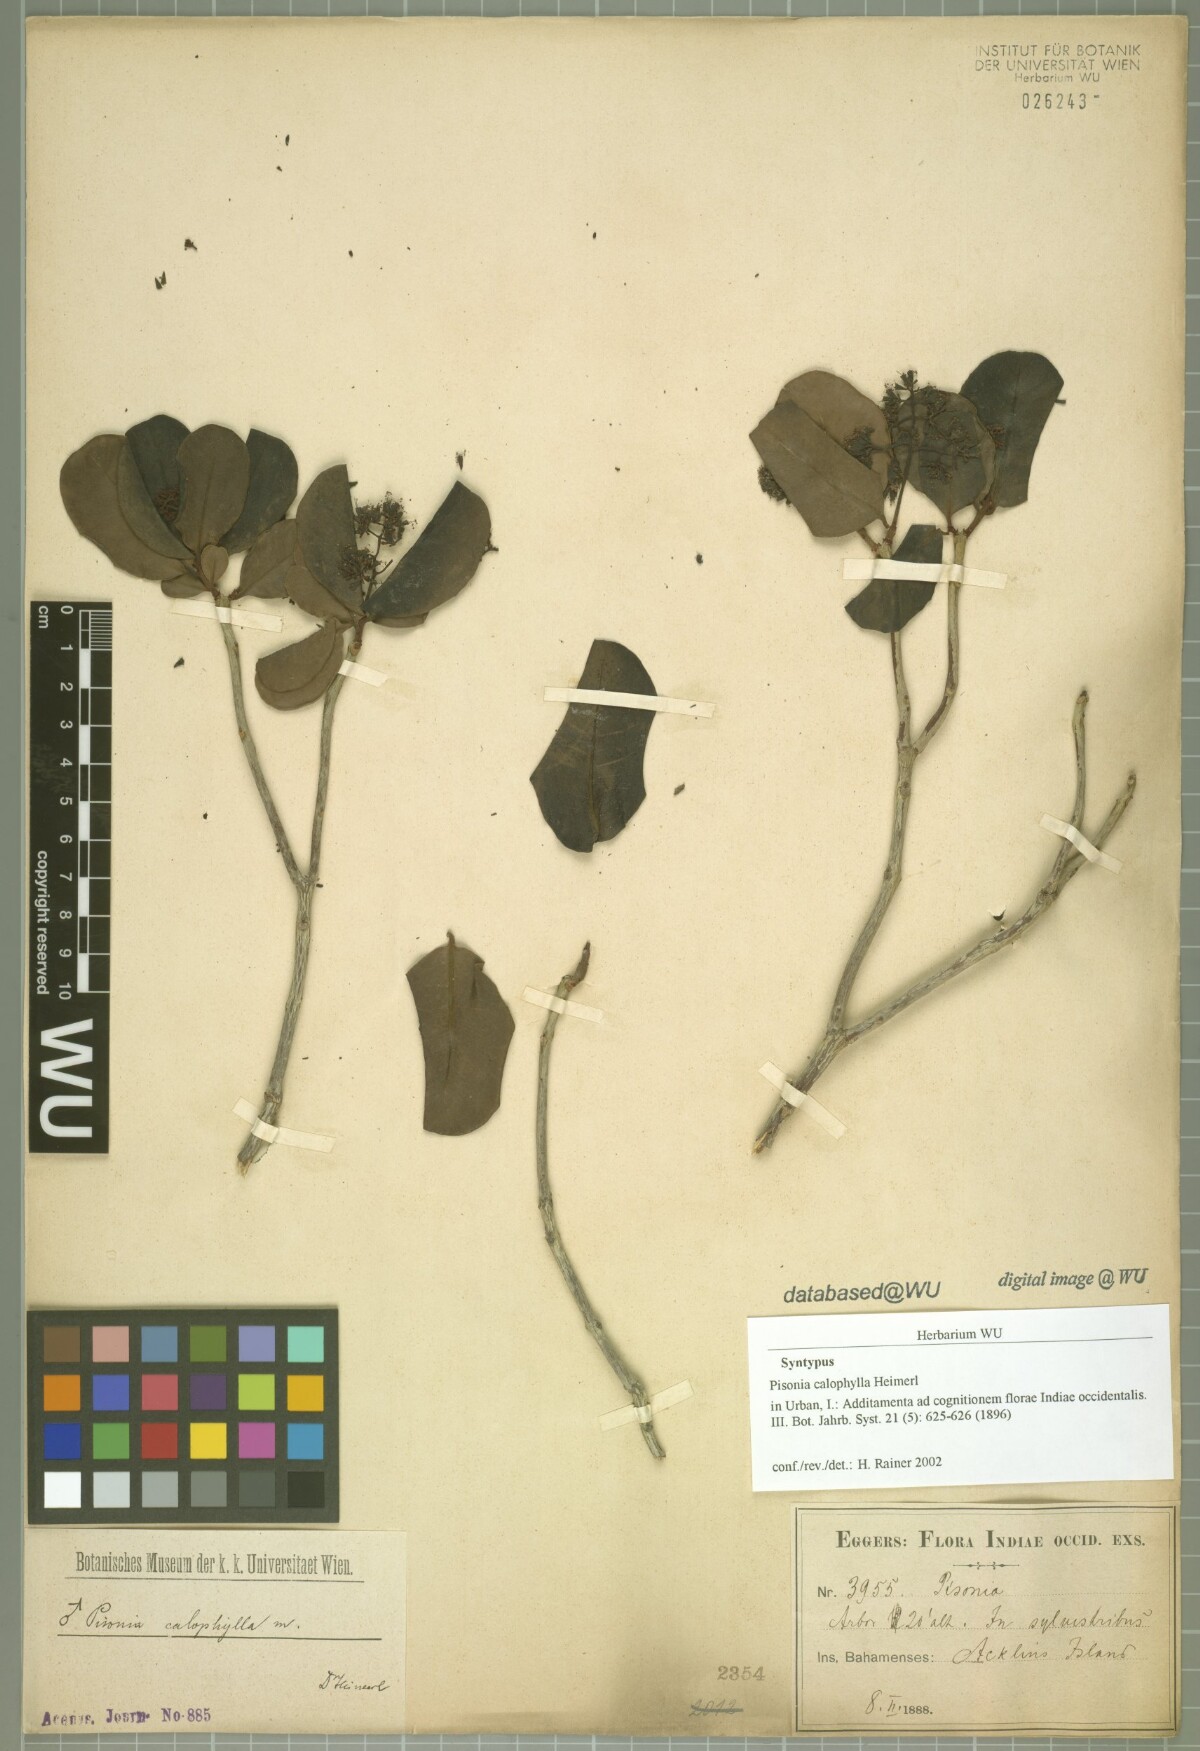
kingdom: Plantae
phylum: Tracheophyta
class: Magnoliopsida
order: Caryophyllales
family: Nyctaginaceae
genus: Guapira
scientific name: Guapira obtusata
